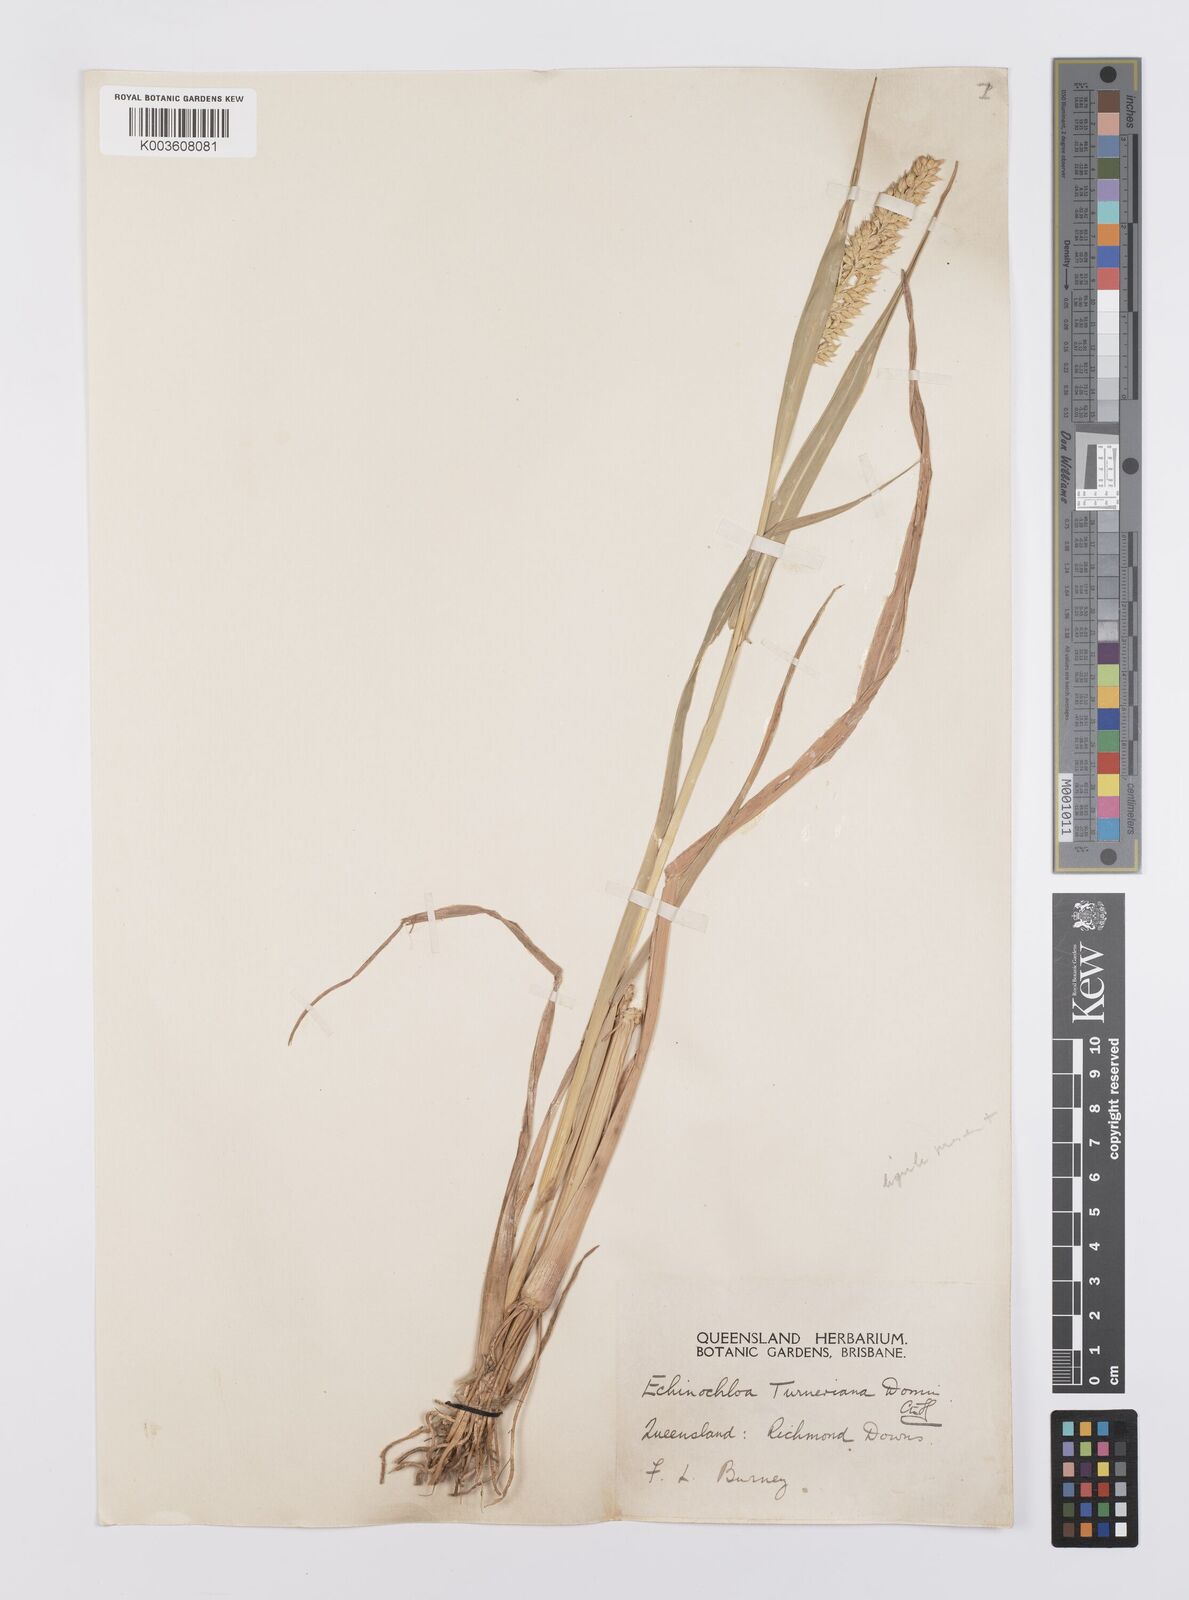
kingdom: Plantae
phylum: Tracheophyta
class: Liliopsida
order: Poales
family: Poaceae
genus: Echinochloa
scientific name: Echinochloa turneriana
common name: Channel millet
